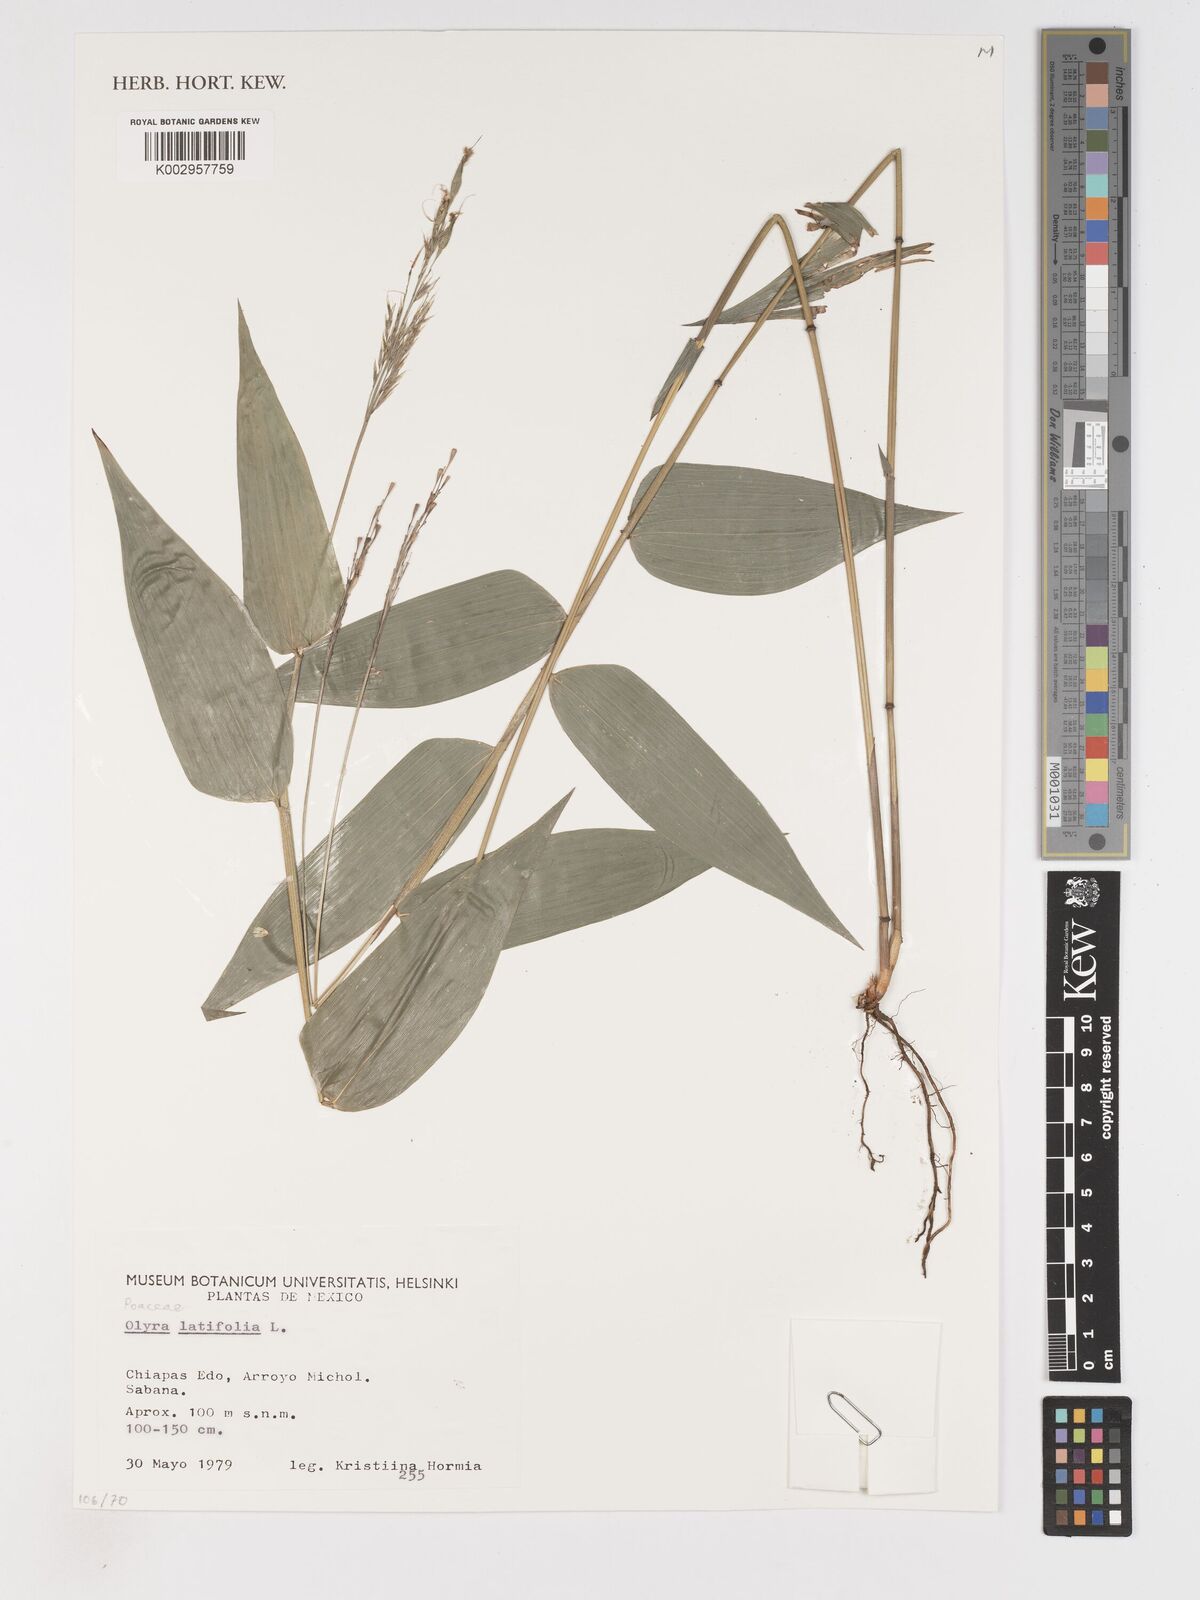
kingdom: Plantae
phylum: Tracheophyta
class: Liliopsida
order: Poales
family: Poaceae
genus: Olyra
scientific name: Olyra latifolia
